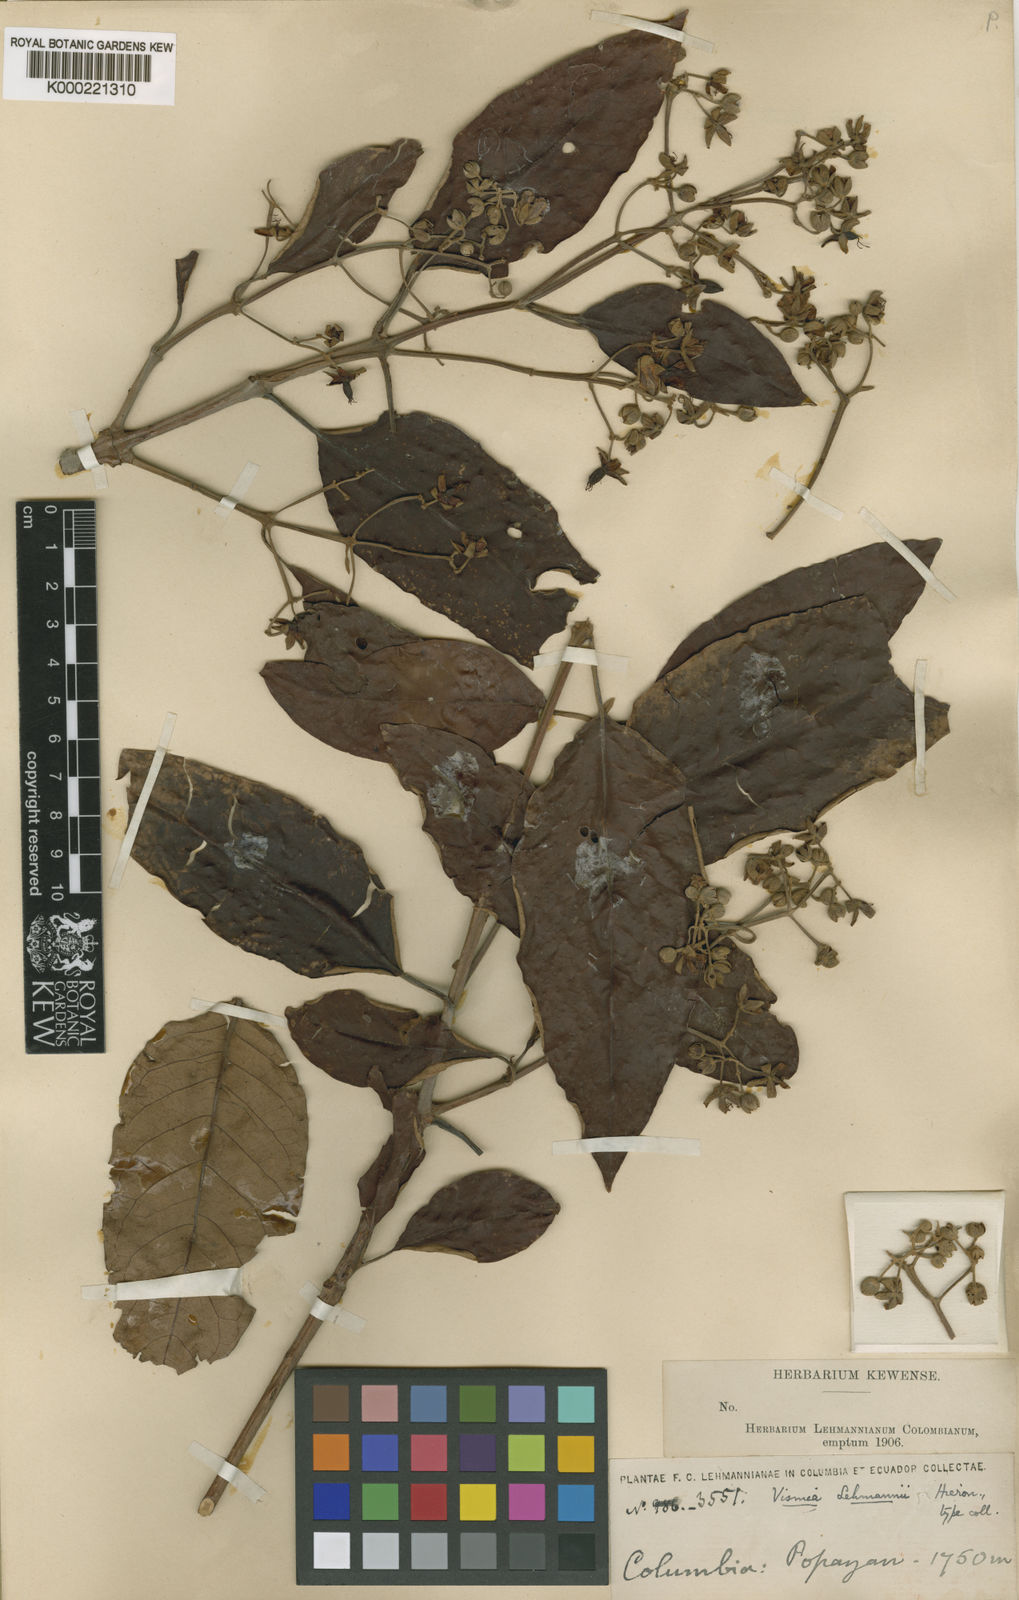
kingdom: Plantae
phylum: Tracheophyta
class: Magnoliopsida
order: Malpighiales
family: Hypericaceae
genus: Vismia
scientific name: Vismia mandurr
